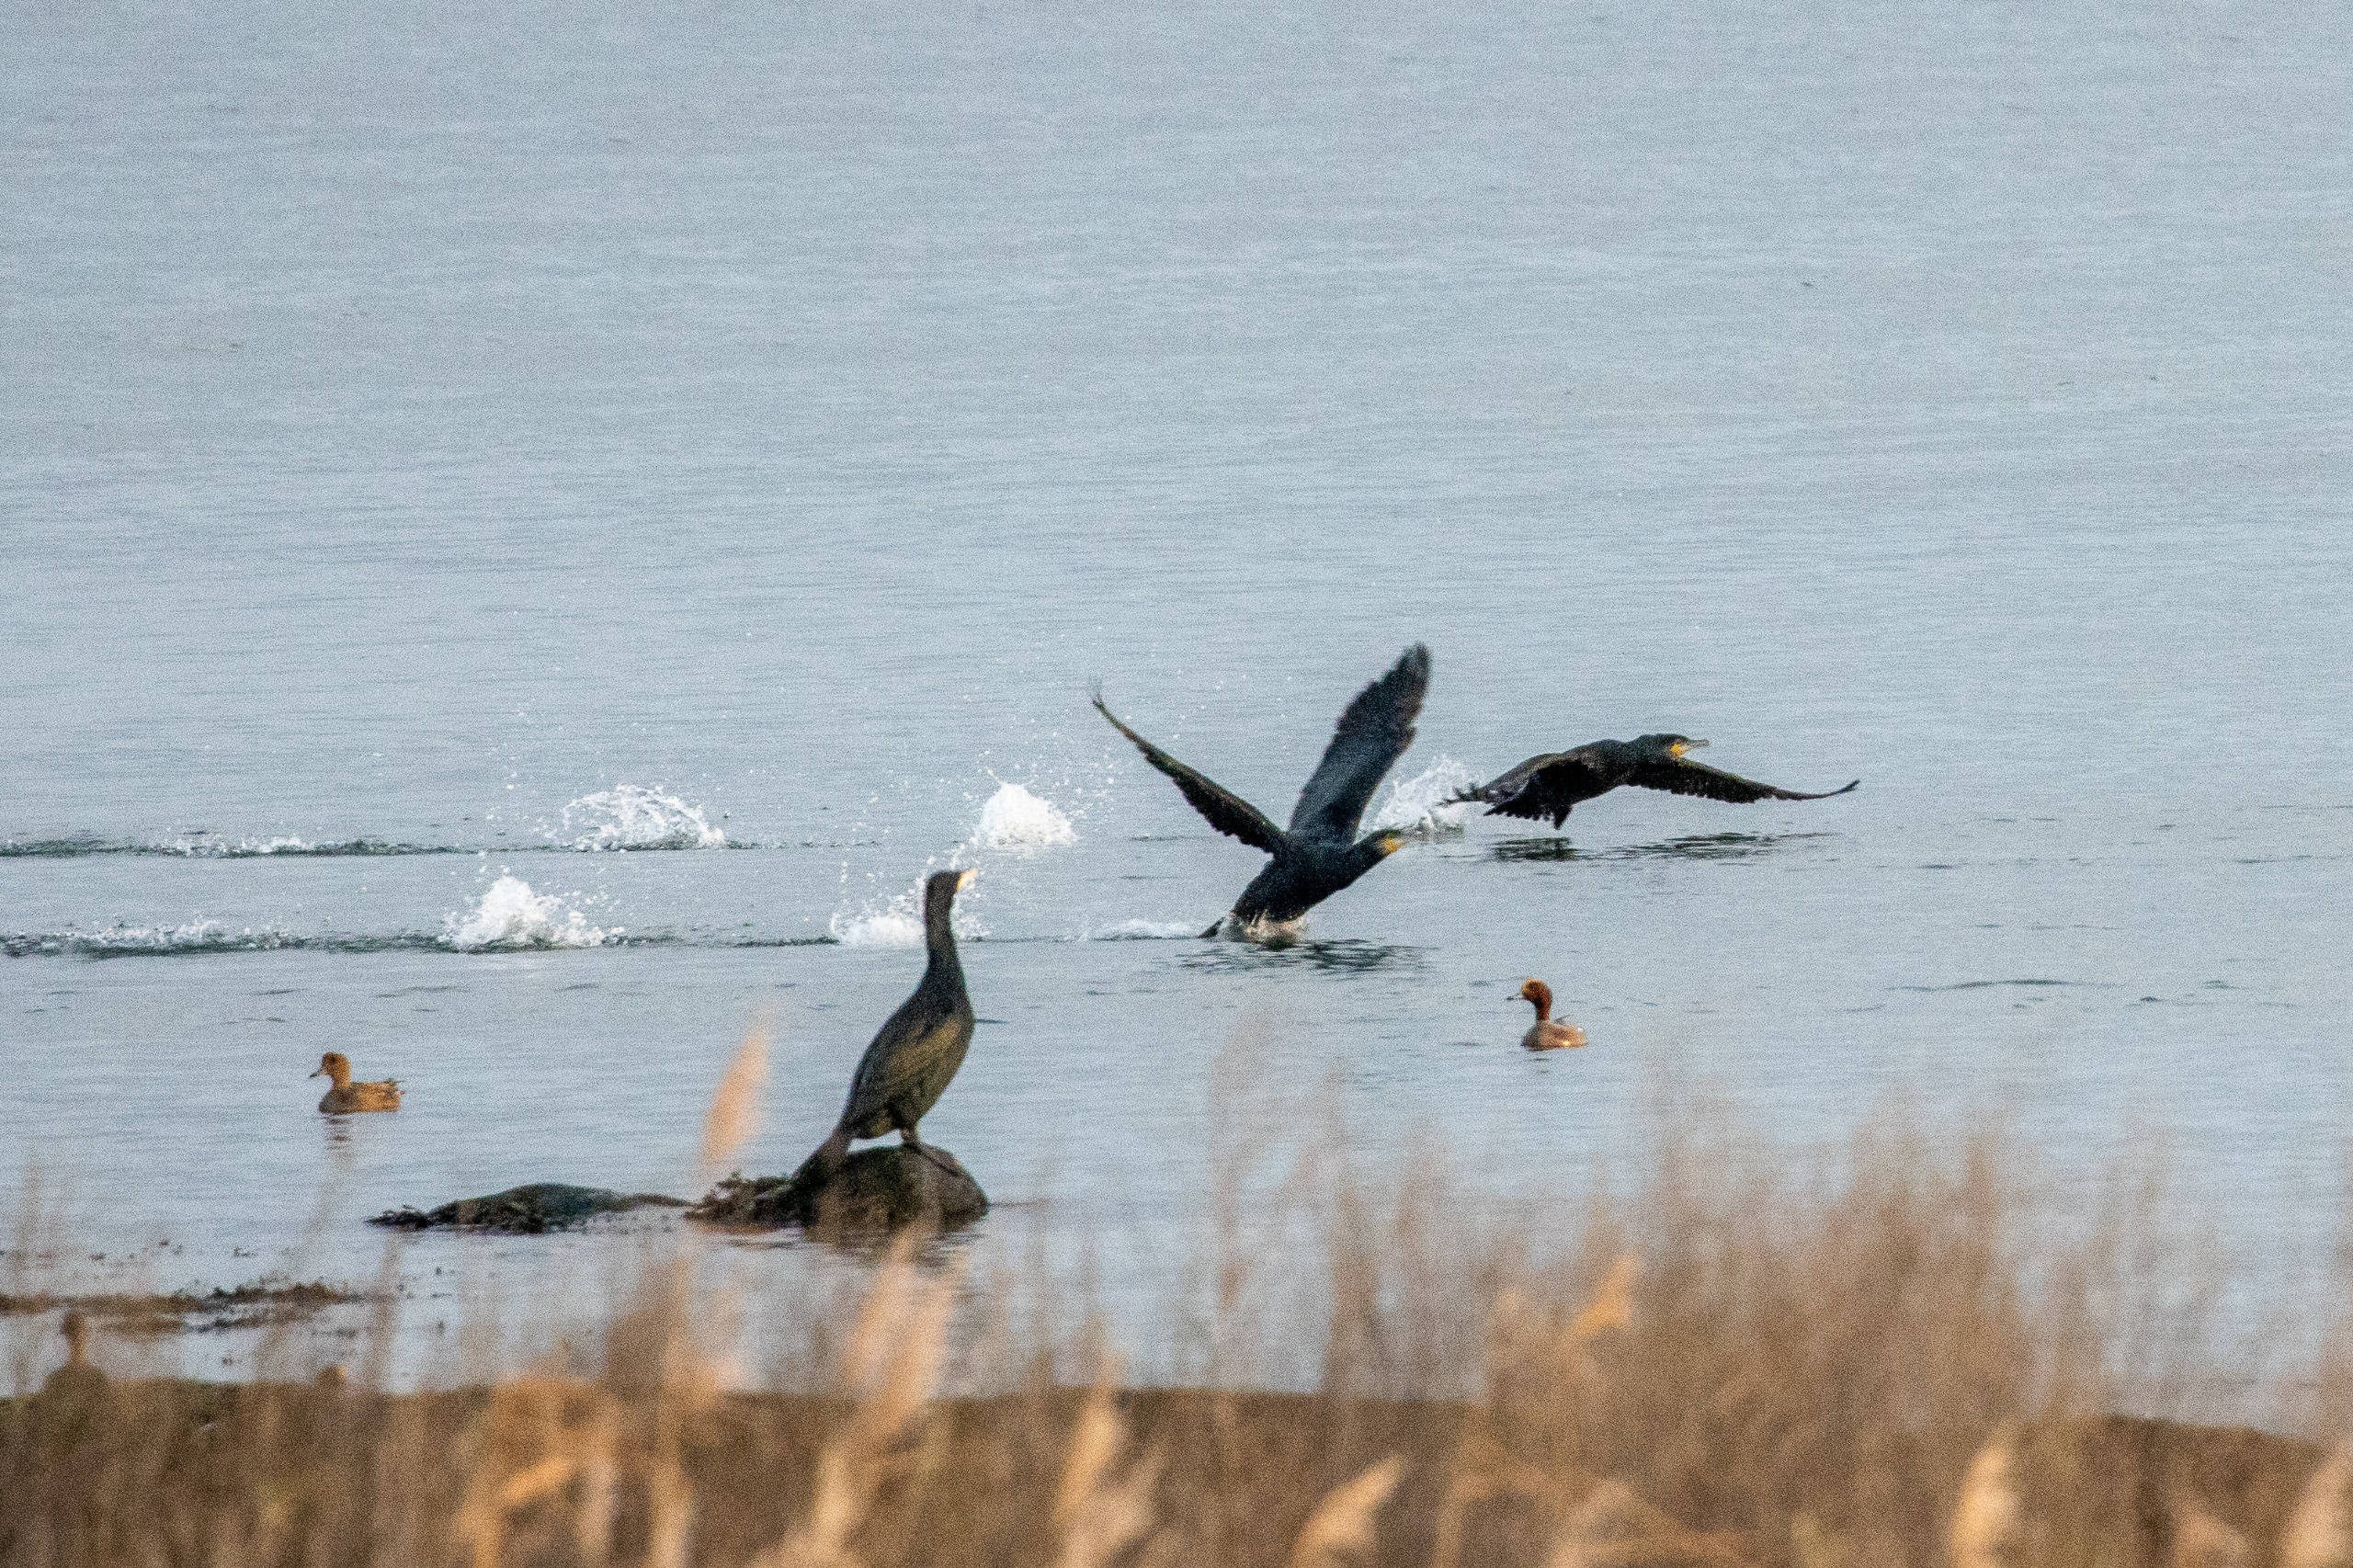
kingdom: Animalia
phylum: Chordata
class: Aves
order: Anseriformes
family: Anatidae
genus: Mareca
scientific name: Mareca penelope
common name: Pibeand
